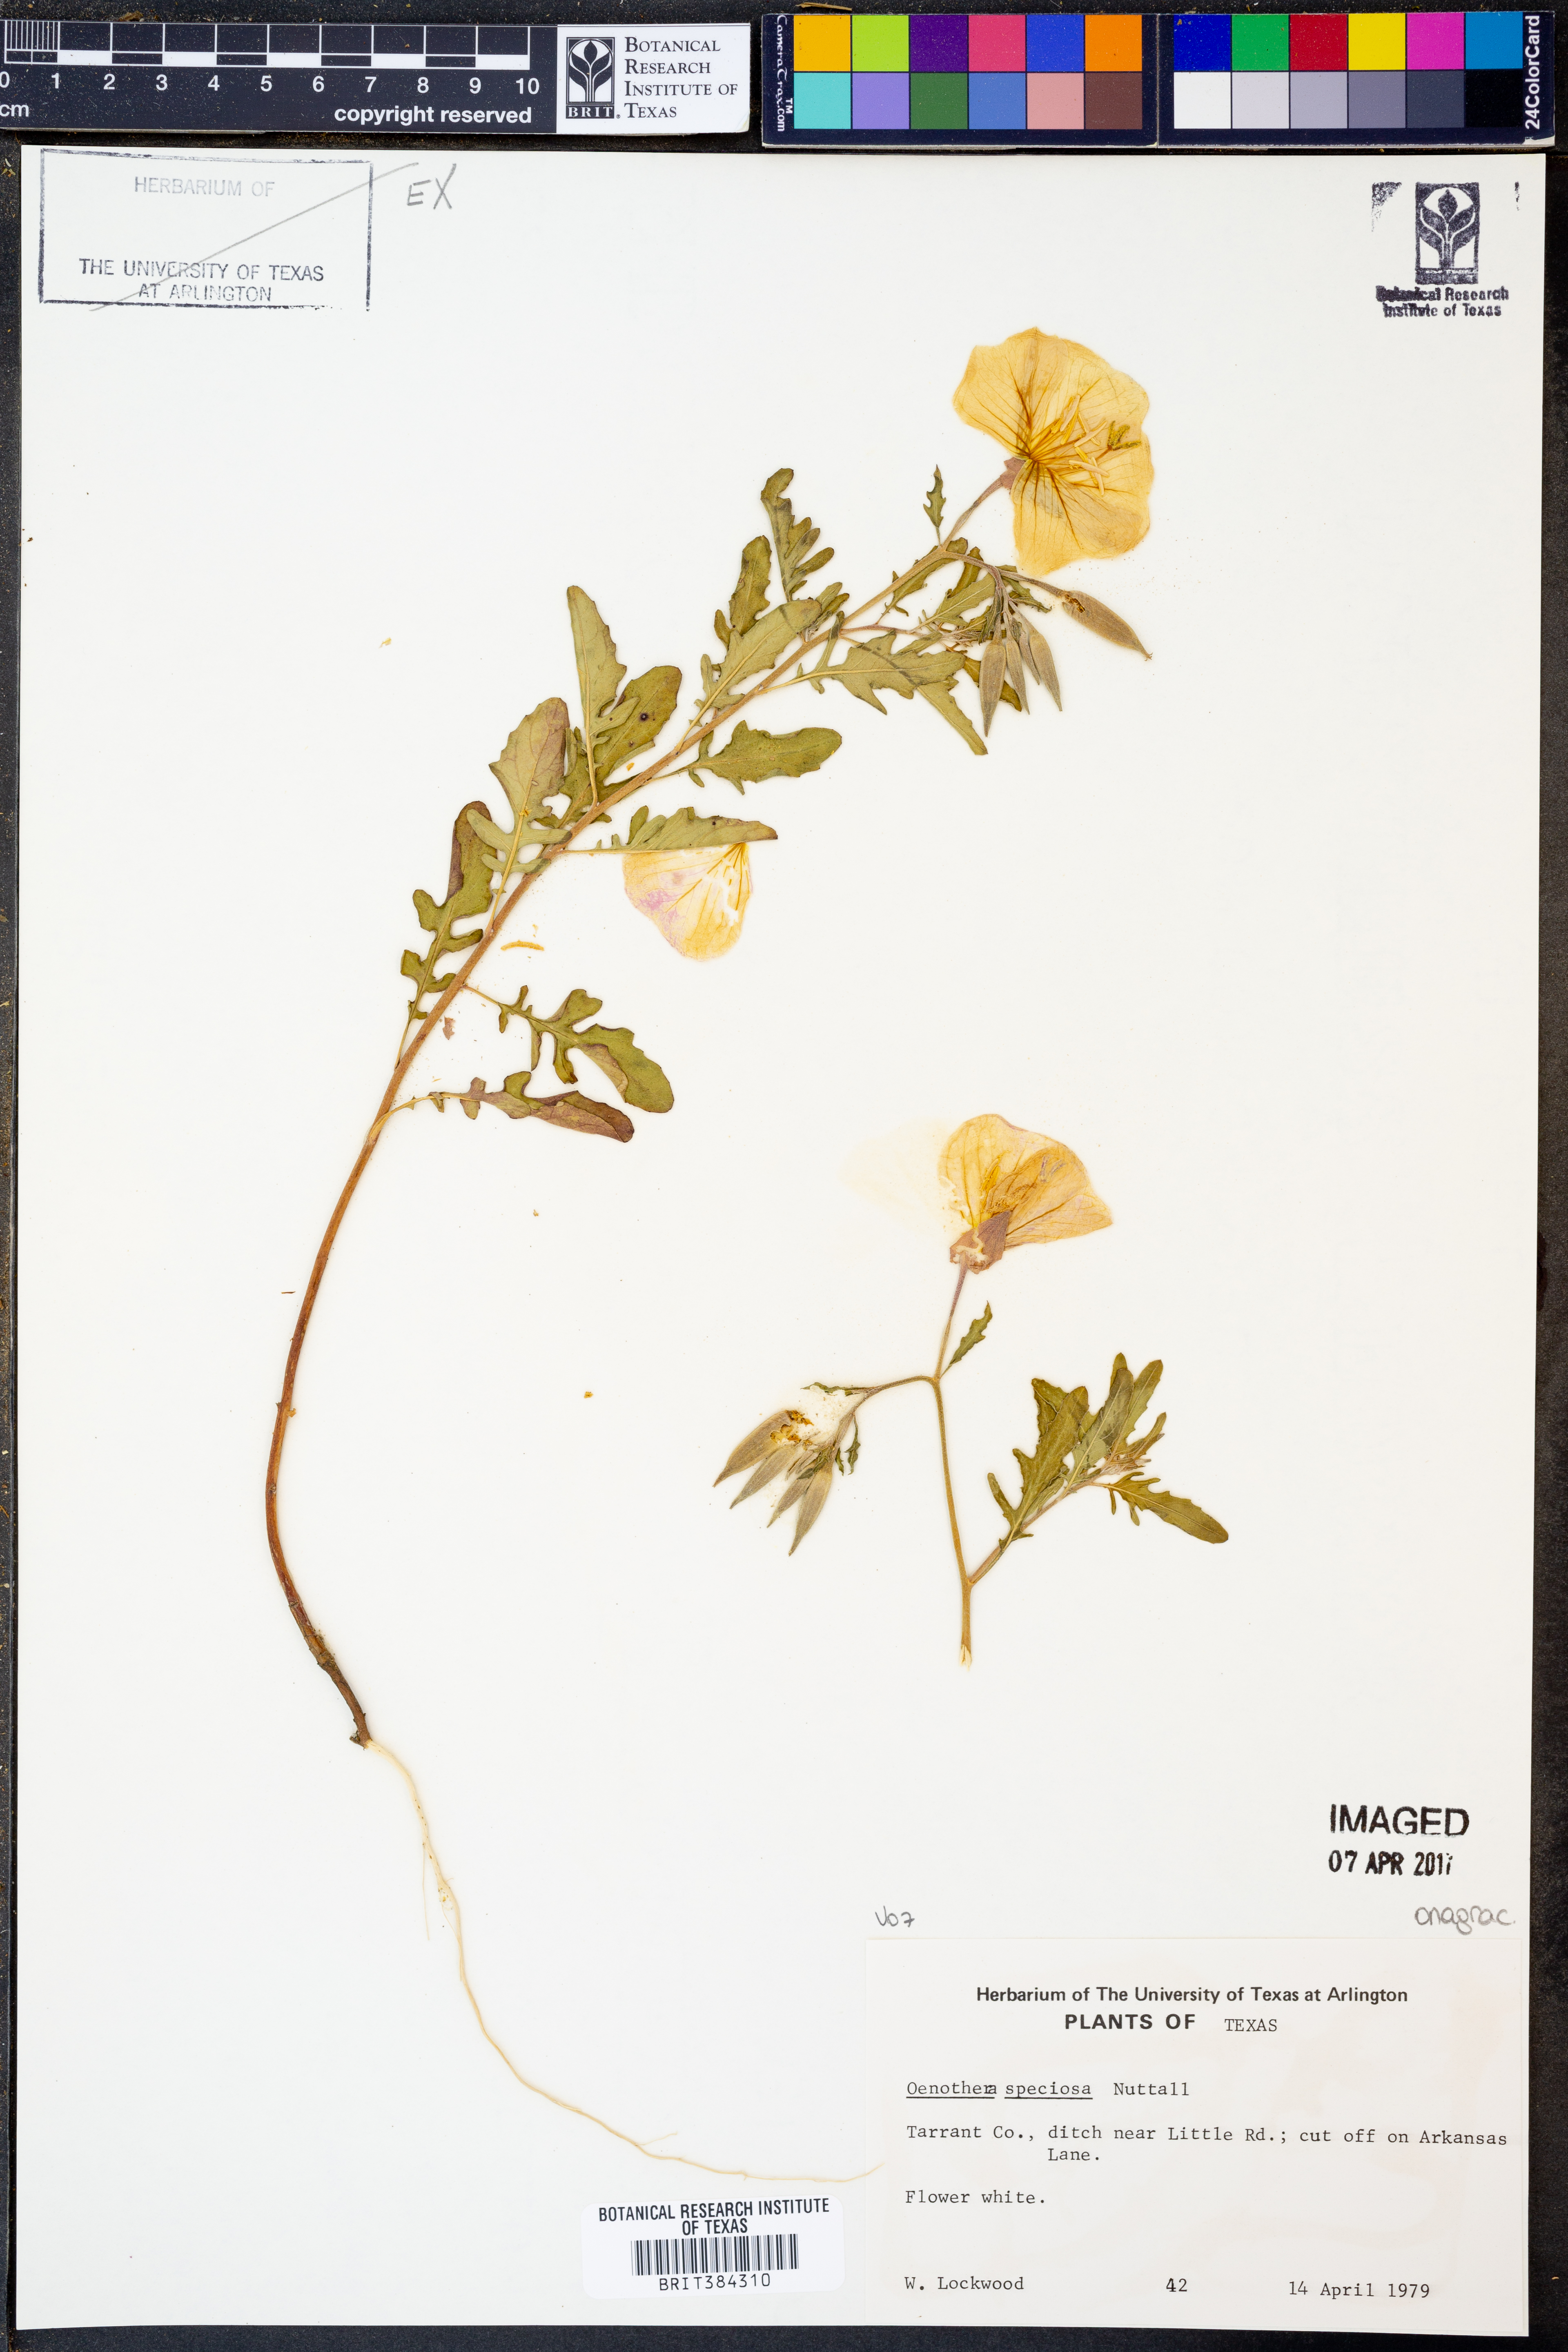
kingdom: Plantae
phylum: Tracheophyta
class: Magnoliopsida
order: Myrtales
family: Onagraceae
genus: Oenothera
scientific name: Oenothera speciosa
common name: White evening-primrose
